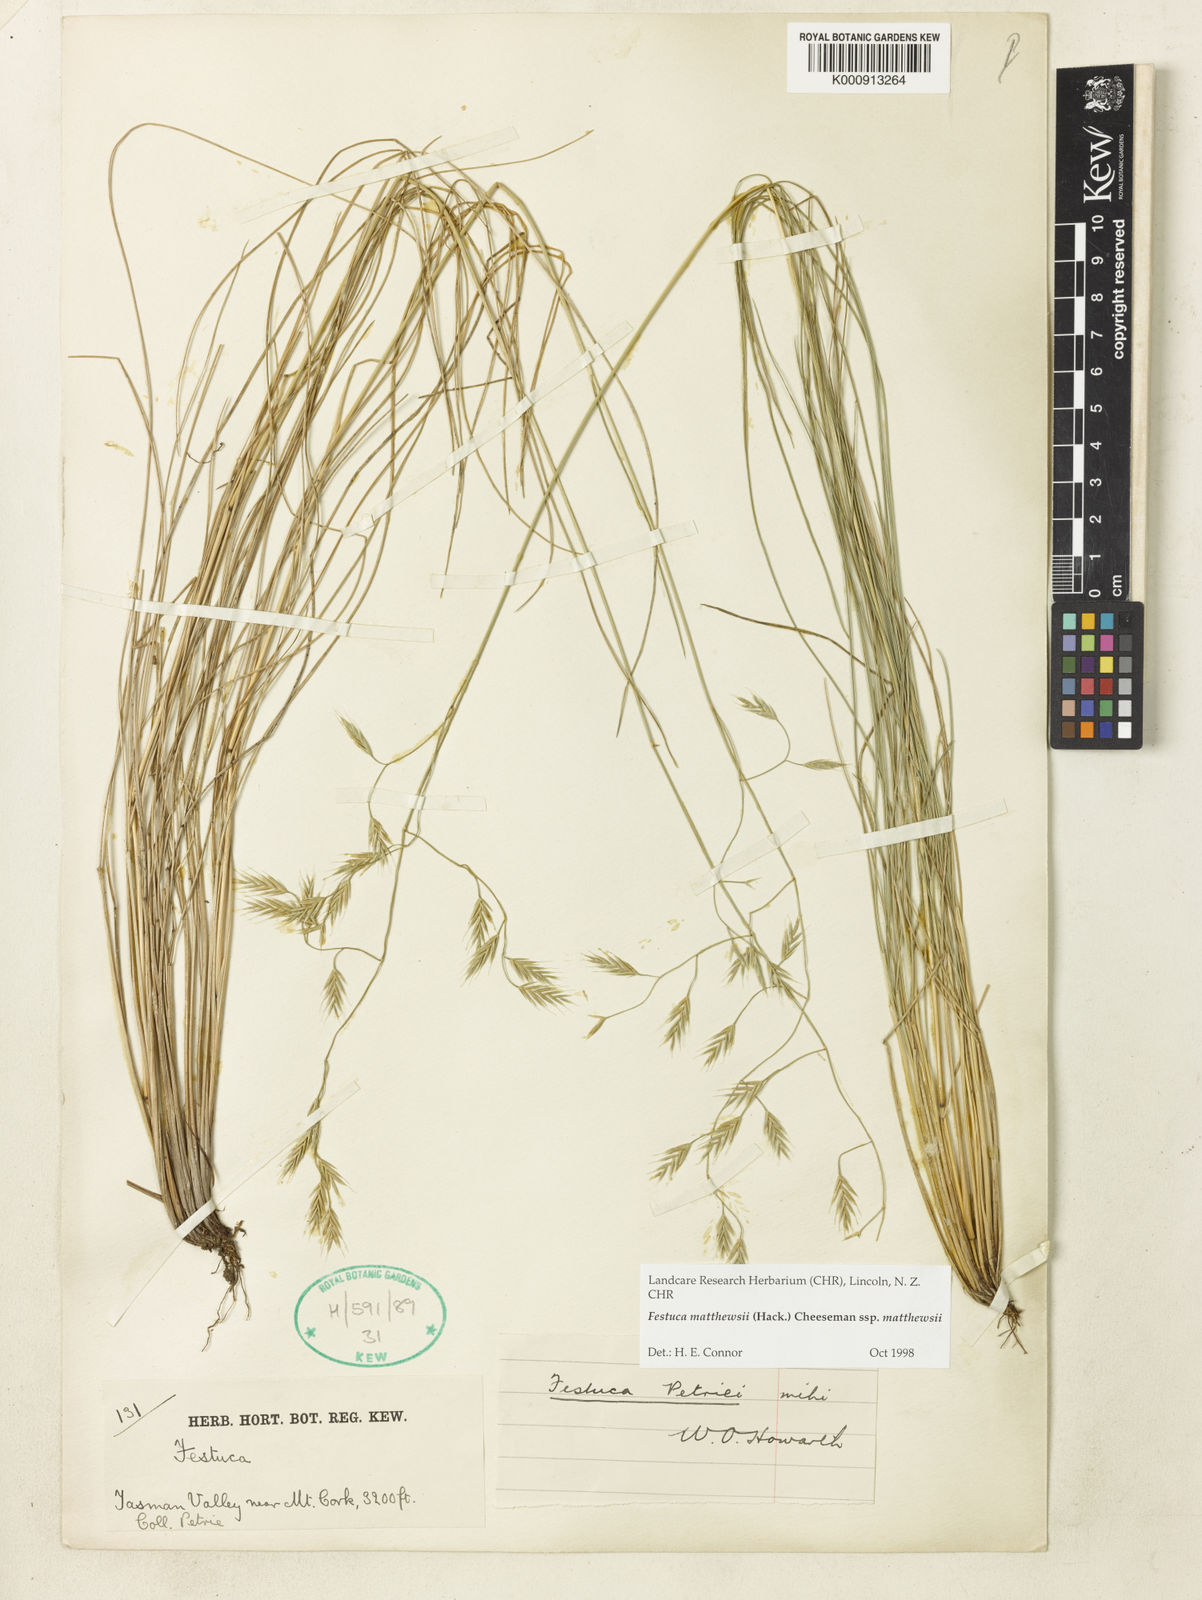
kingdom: Plantae
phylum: Tracheophyta
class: Liliopsida
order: Poales
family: Poaceae
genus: Festuca
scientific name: Festuca matthewsii
